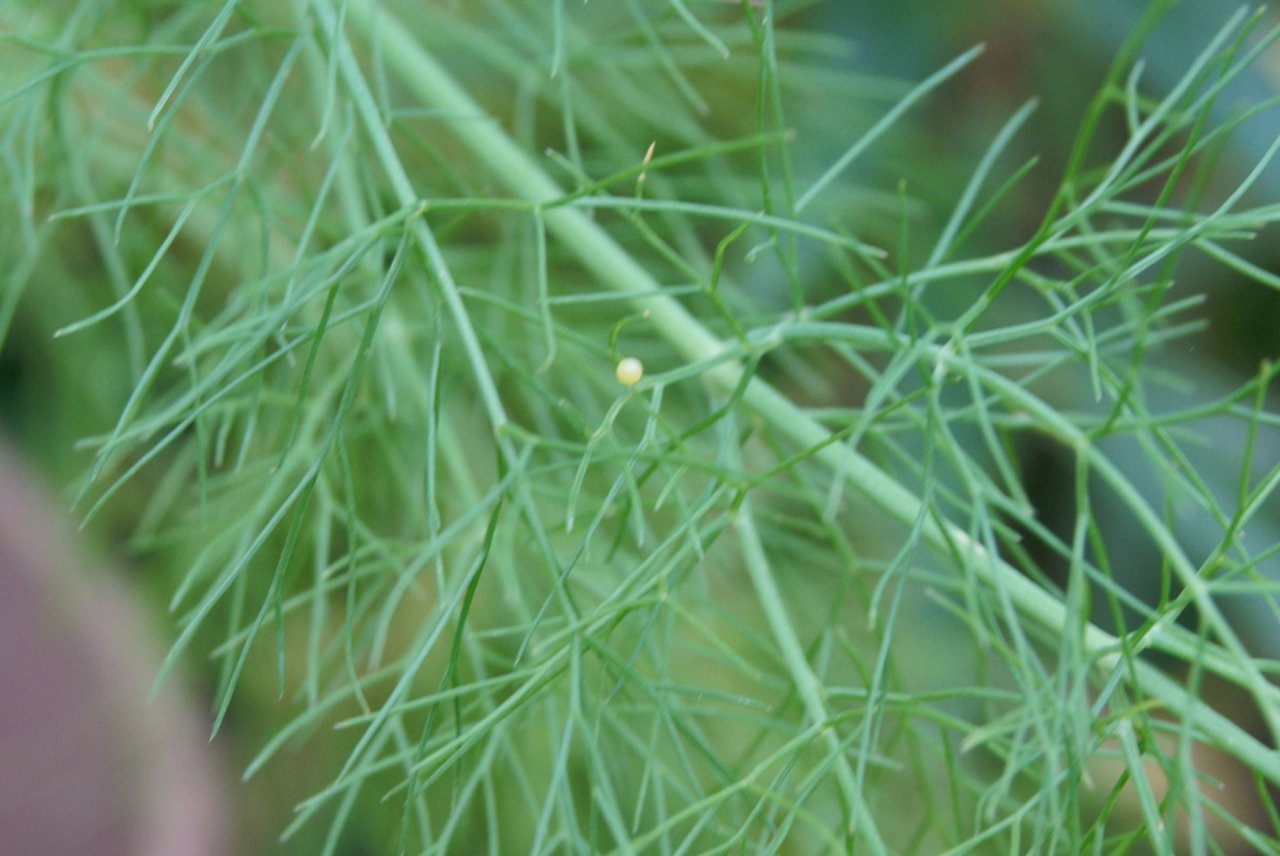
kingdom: Animalia
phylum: Arthropoda
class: Insecta
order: Lepidoptera
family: Papilionidae
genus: Papilio
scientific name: Papilio polyxenes
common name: Black Swallowtail
